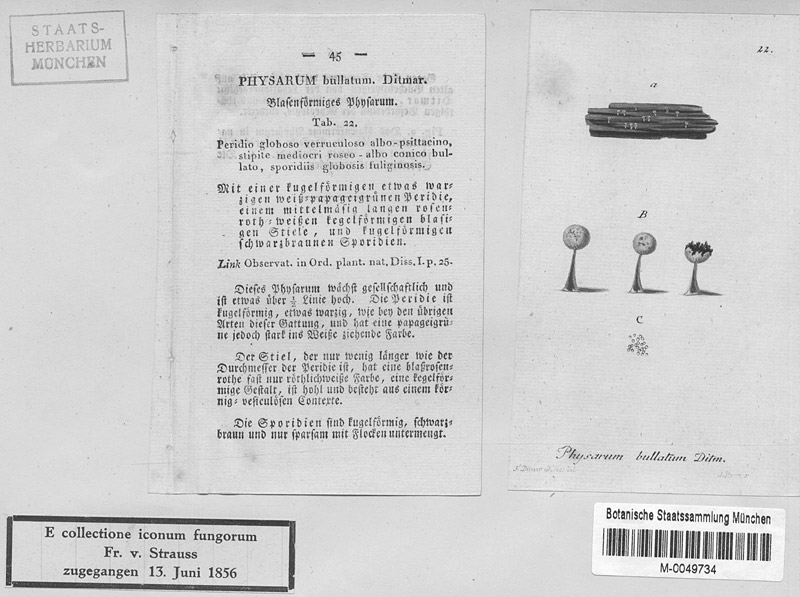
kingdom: Protozoa
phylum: Mycetozoa
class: Myxomycetes
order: Physarales
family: Physaraceae
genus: Physarum
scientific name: Physarum leucopus
